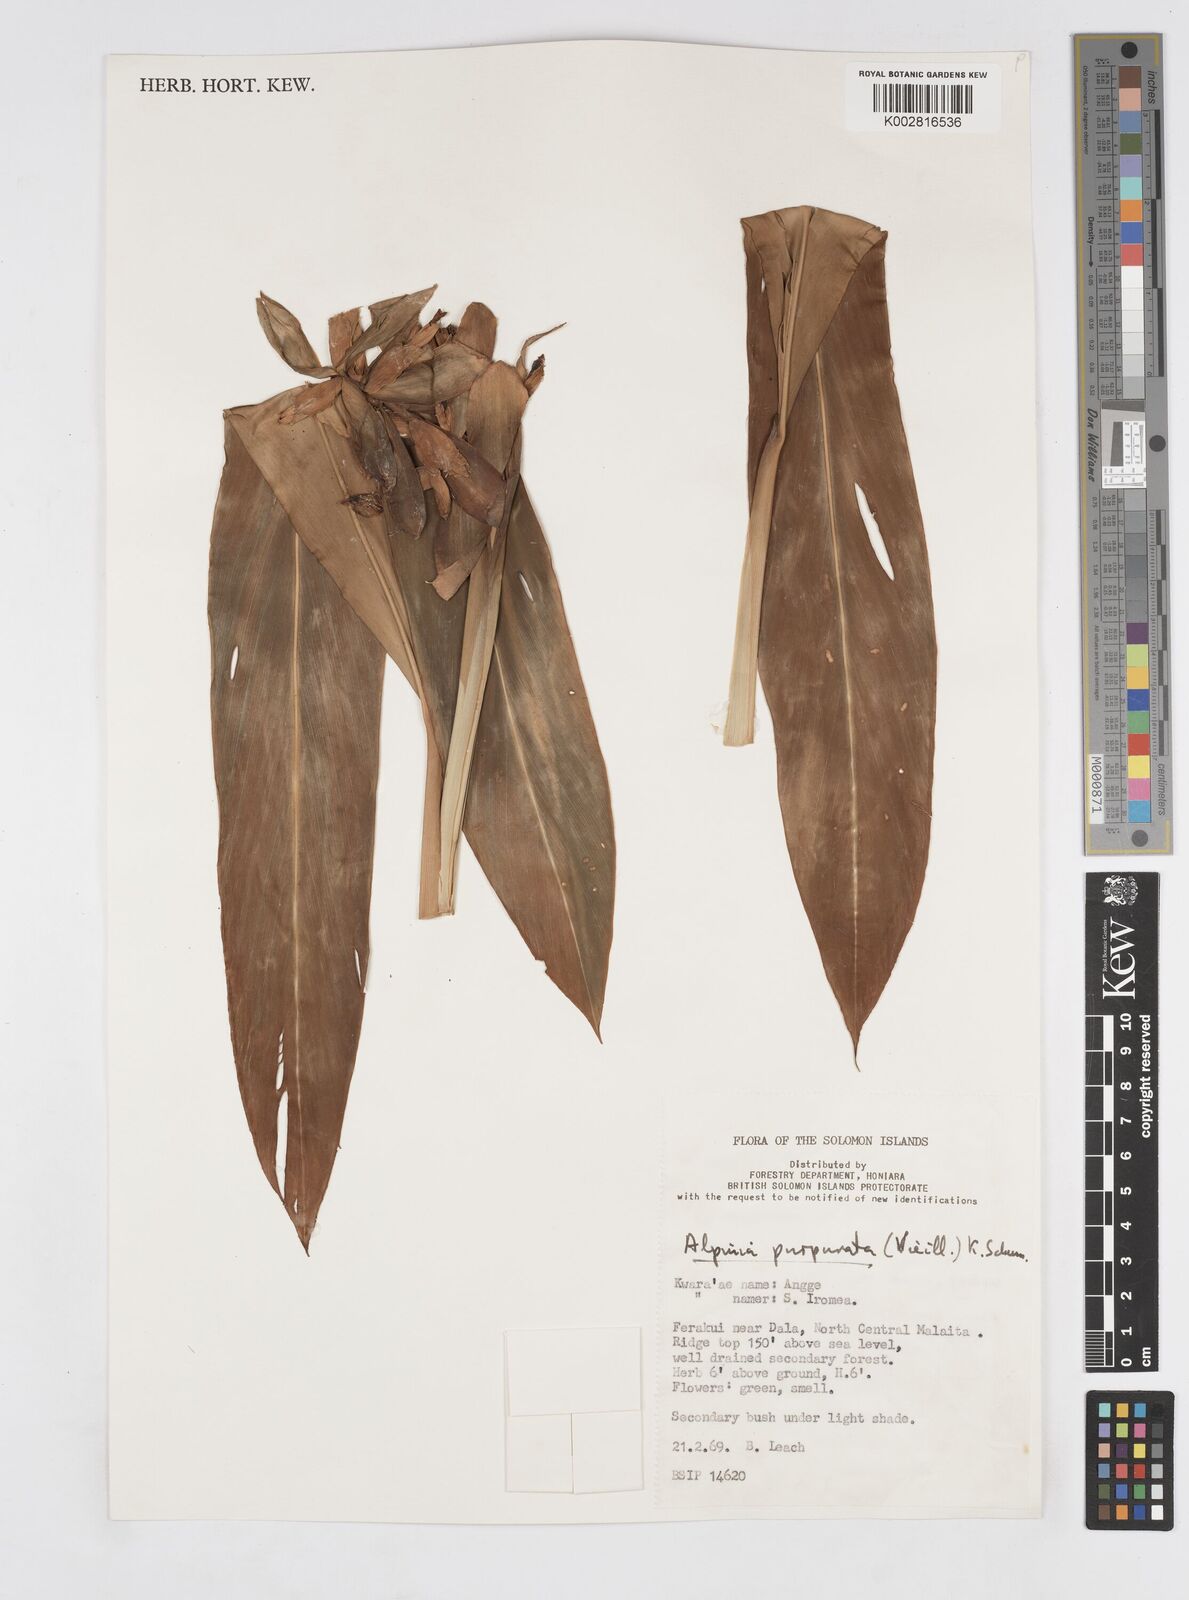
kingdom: Plantae
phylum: Tracheophyta
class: Liliopsida
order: Zingiberales
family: Zingiberaceae
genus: Alpinia
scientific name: Alpinia purpurata
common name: Red ginger
